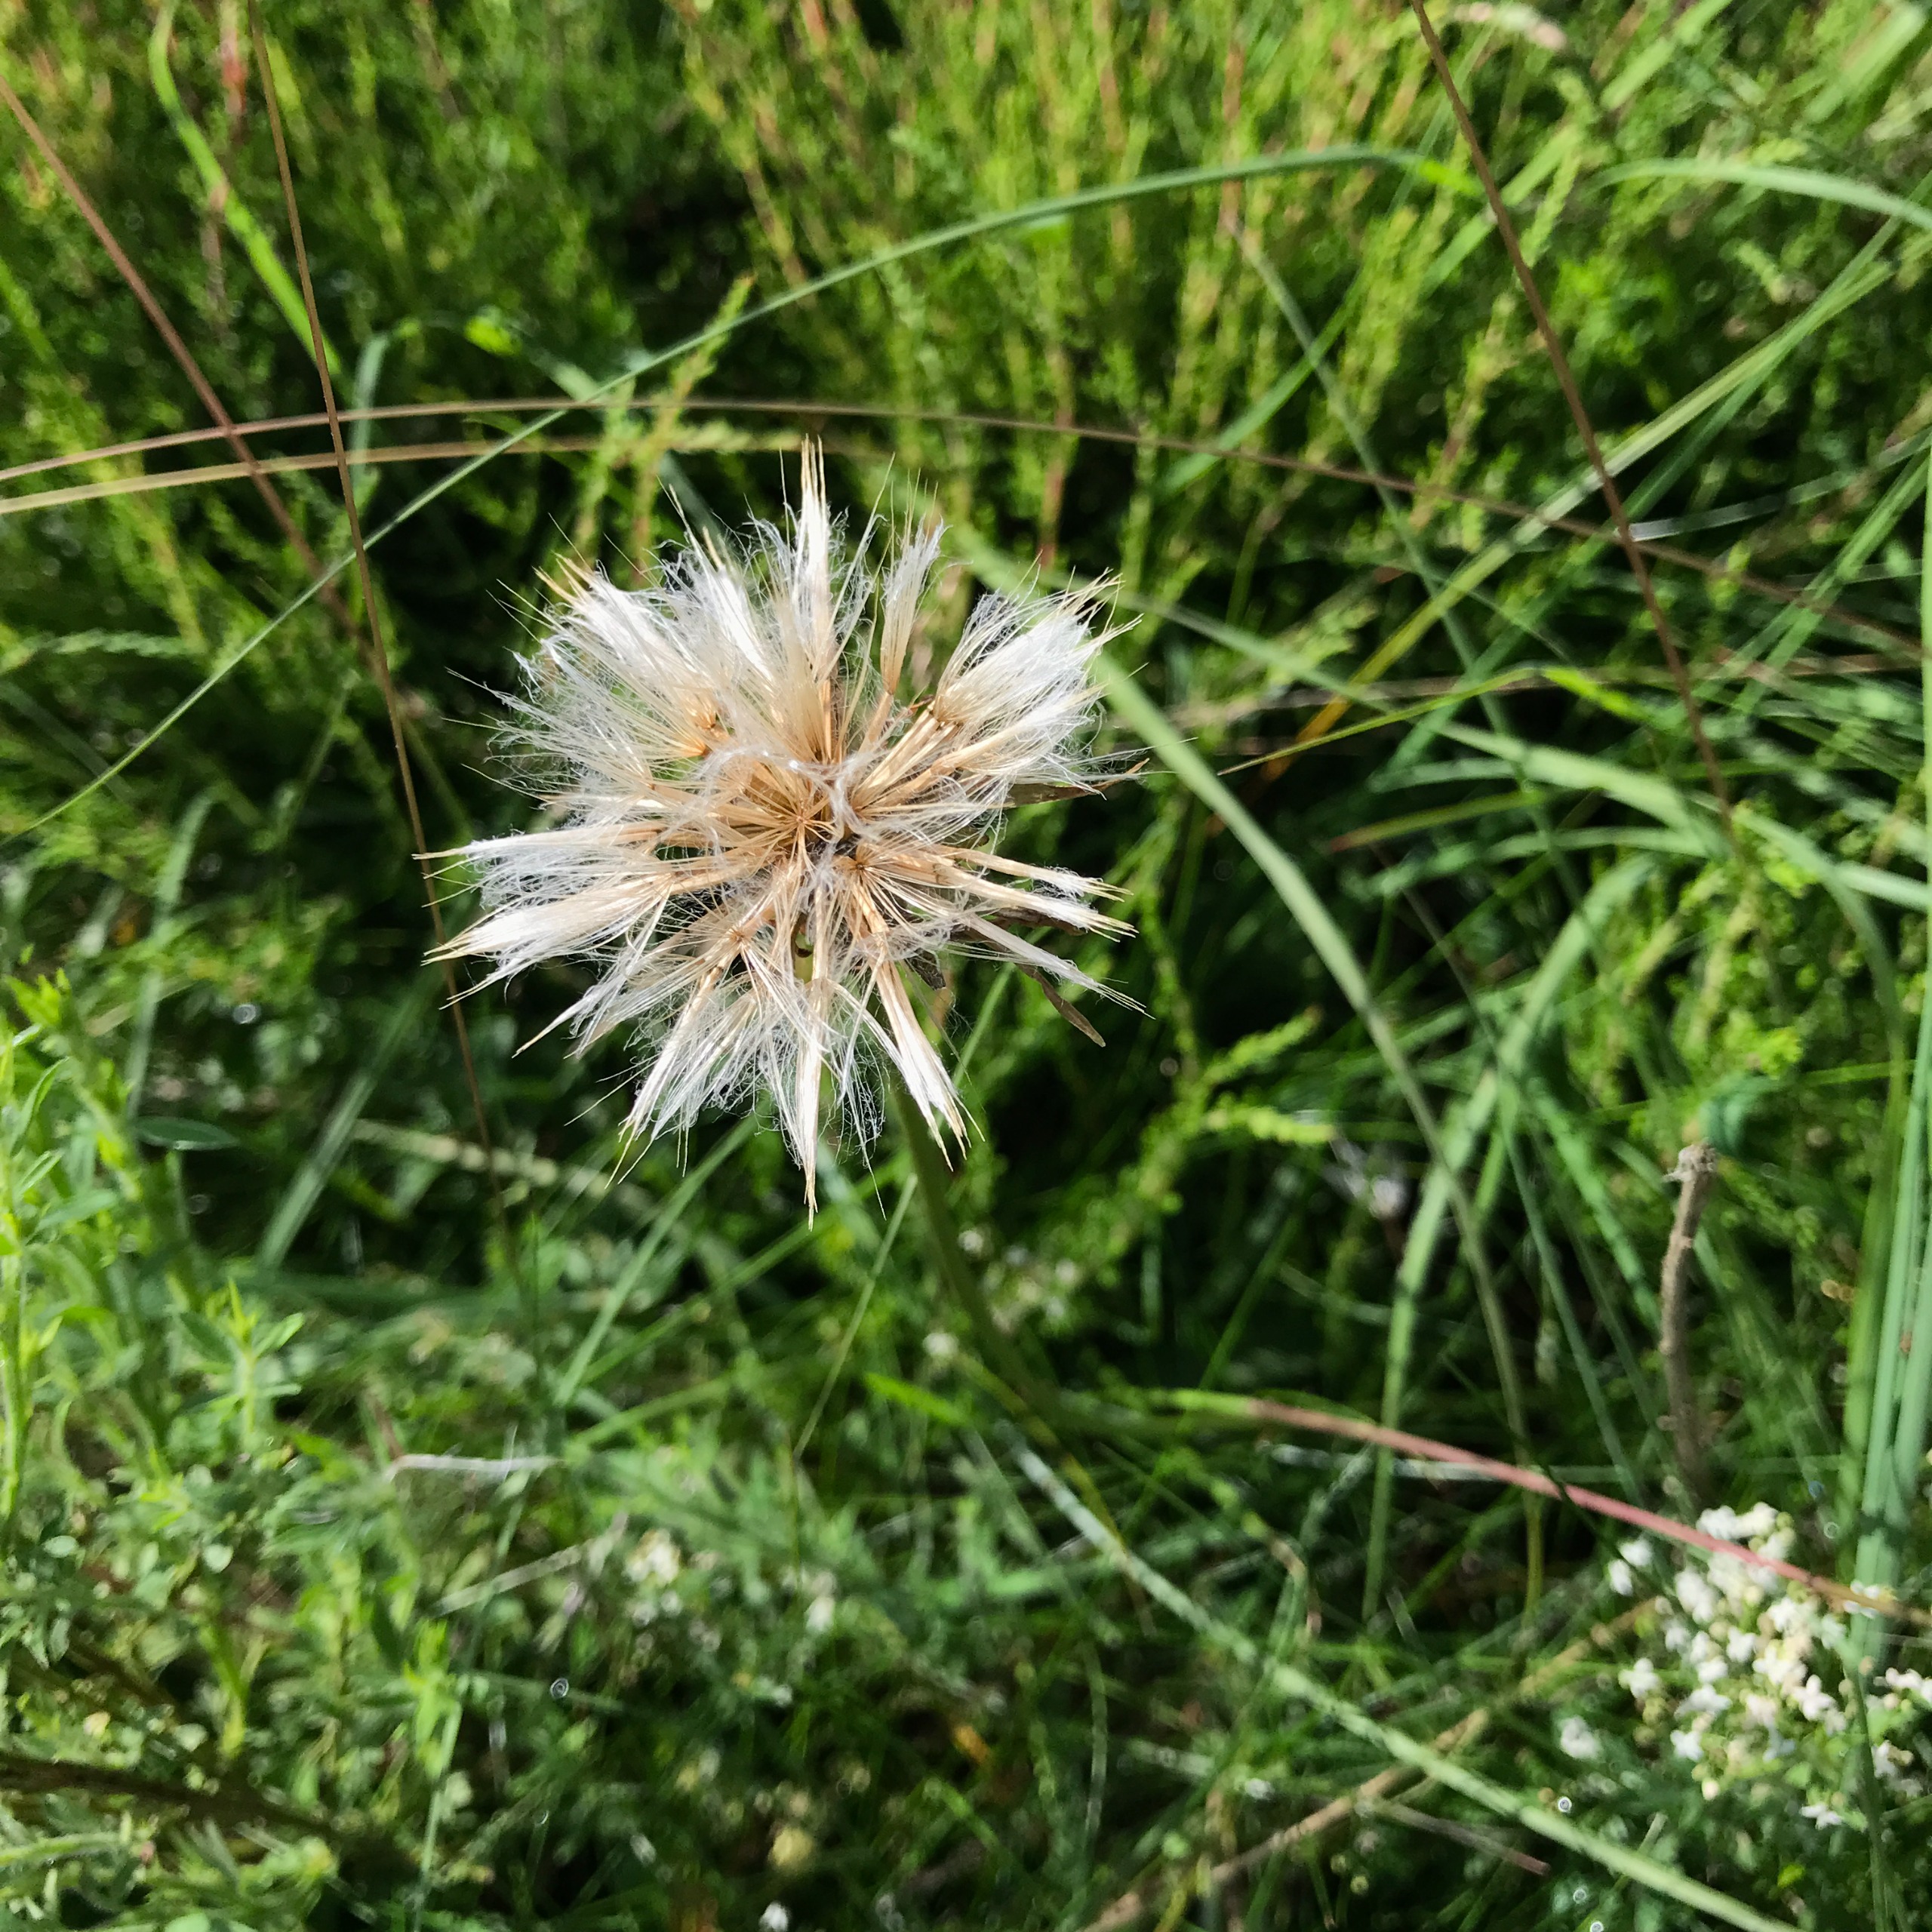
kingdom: Plantae
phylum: Tracheophyta
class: Magnoliopsida
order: Asterales
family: Asteraceae
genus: Scorzonera
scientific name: Scorzonera humilis
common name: Lav skorsoner
